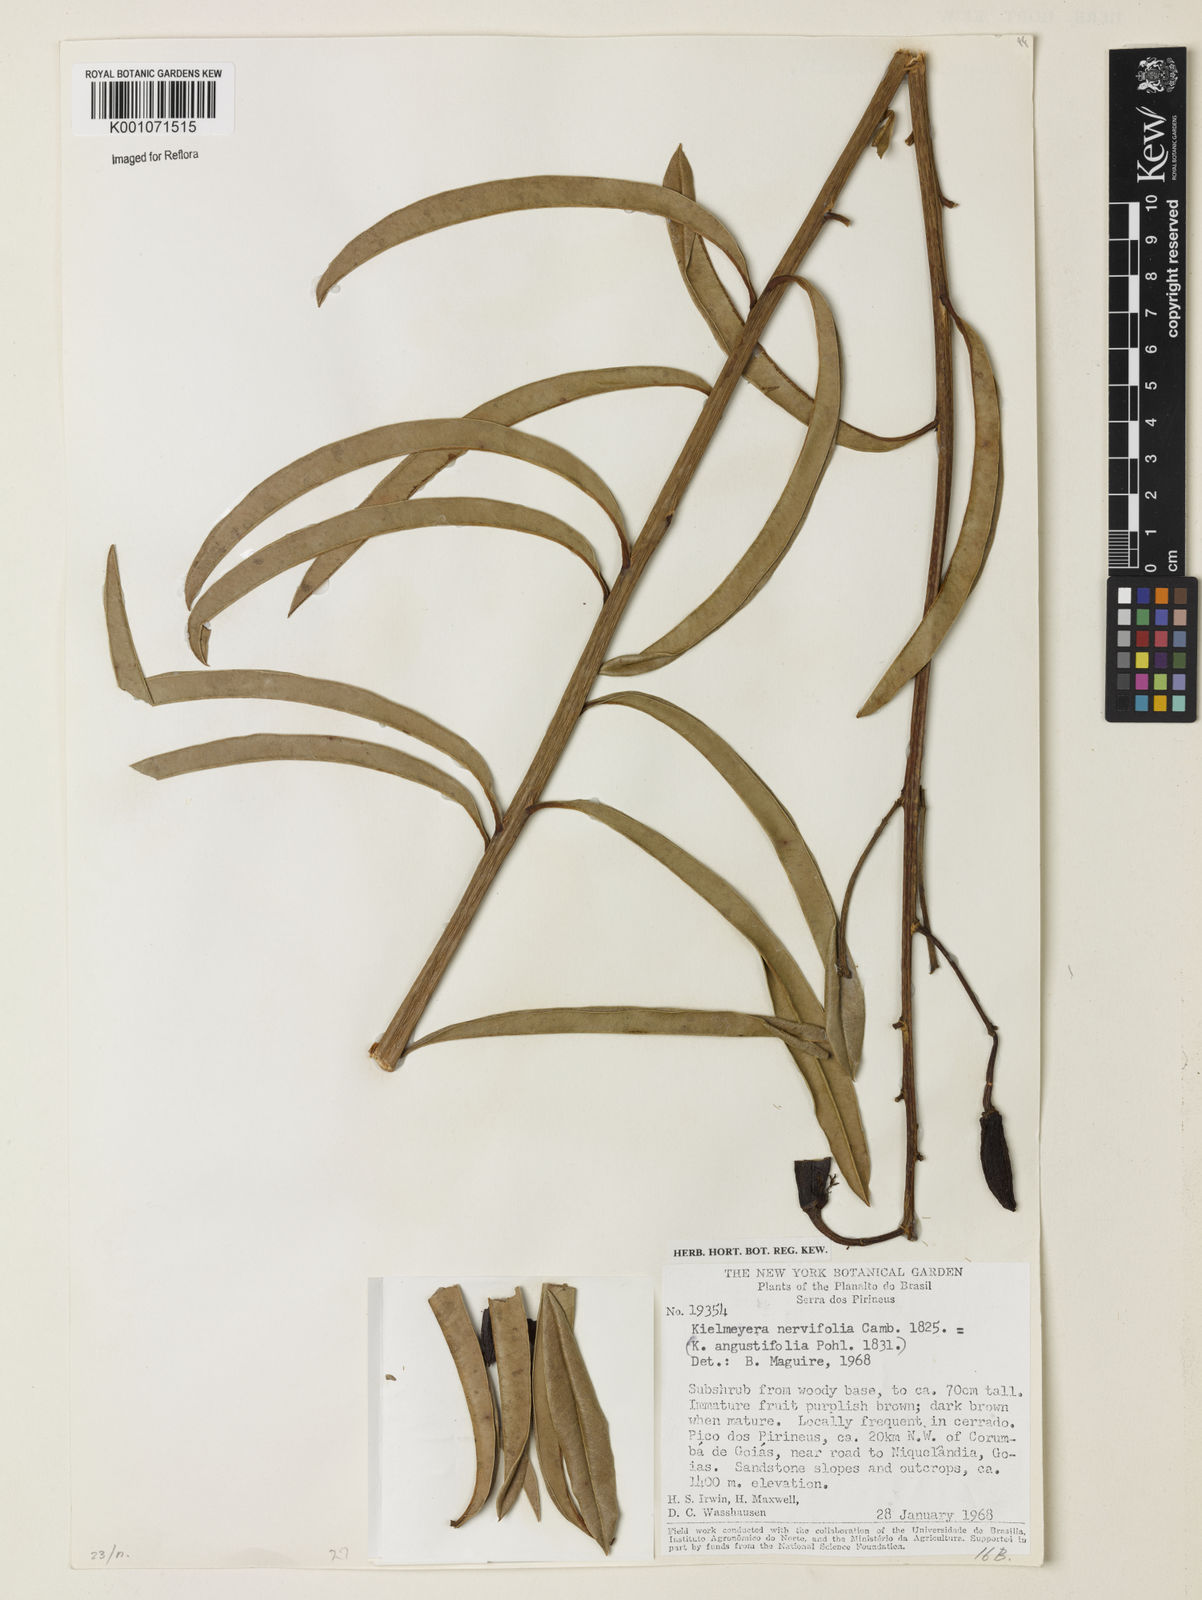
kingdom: Plantae
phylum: Tracheophyta
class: Magnoliopsida
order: Malpighiales
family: Calophyllaceae
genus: Kielmeyera
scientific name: Kielmeyera abdita
